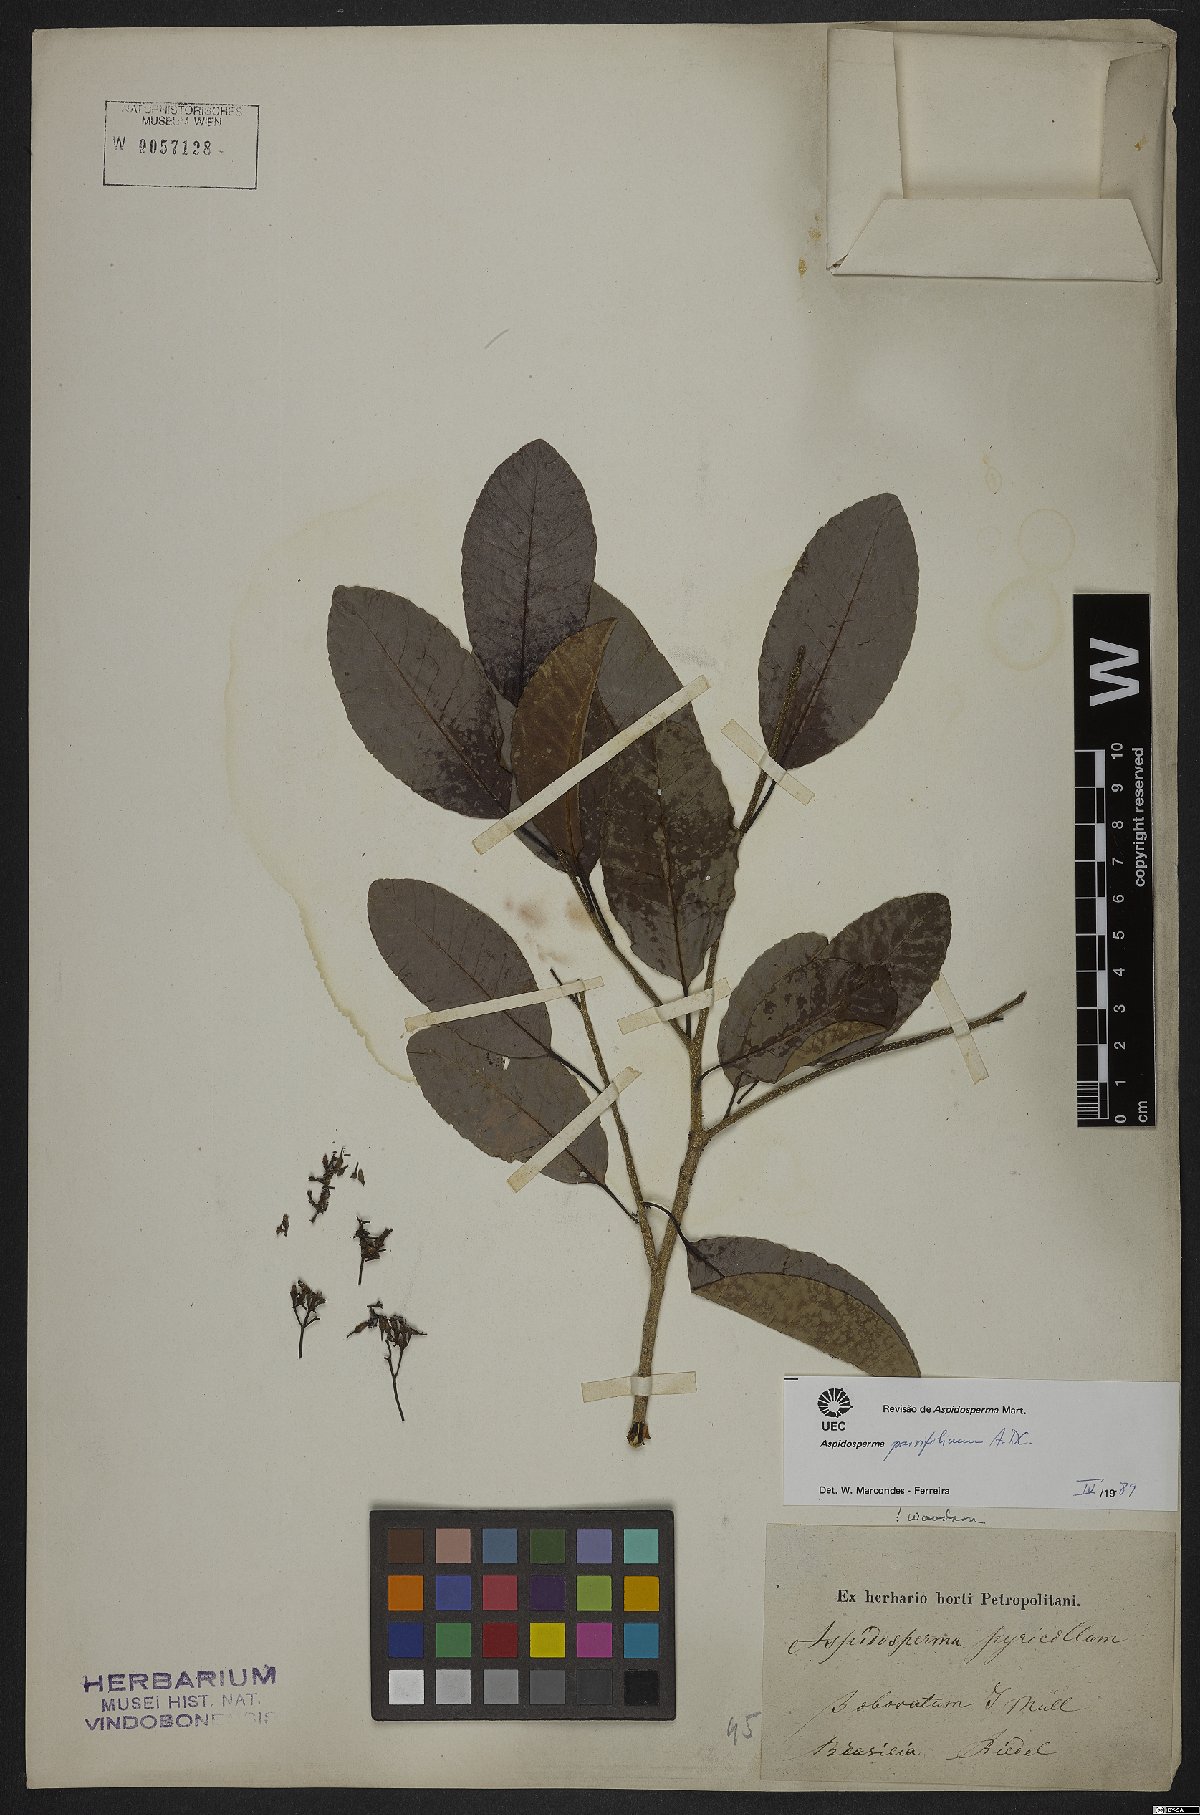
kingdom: Plantae
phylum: Tracheophyta
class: Magnoliopsida
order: Gentianales
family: Apocynaceae
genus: Aspidosperma
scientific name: Aspidosperma parvifolium
